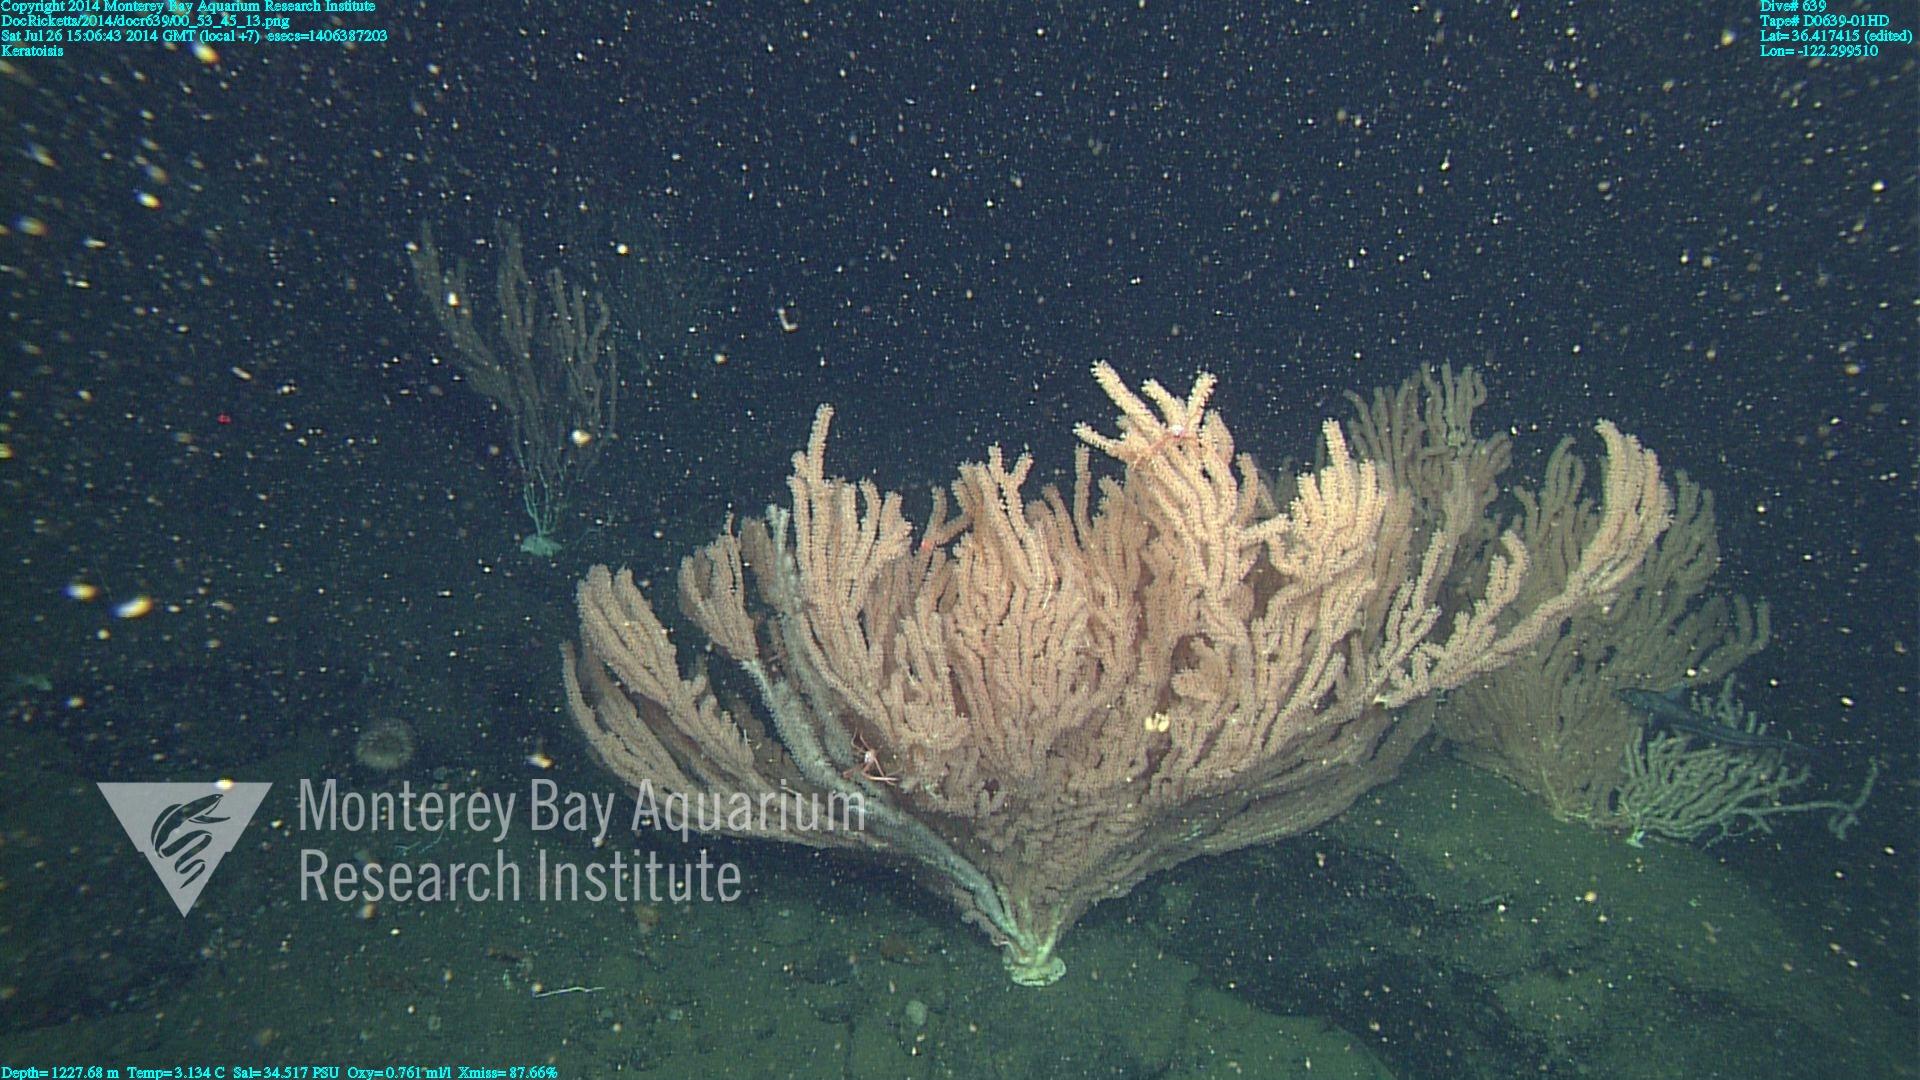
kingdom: Animalia
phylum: Cnidaria
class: Anthozoa
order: Scleralcyonacea
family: Keratoisididae
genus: Keratoisis
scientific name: Keratoisis
